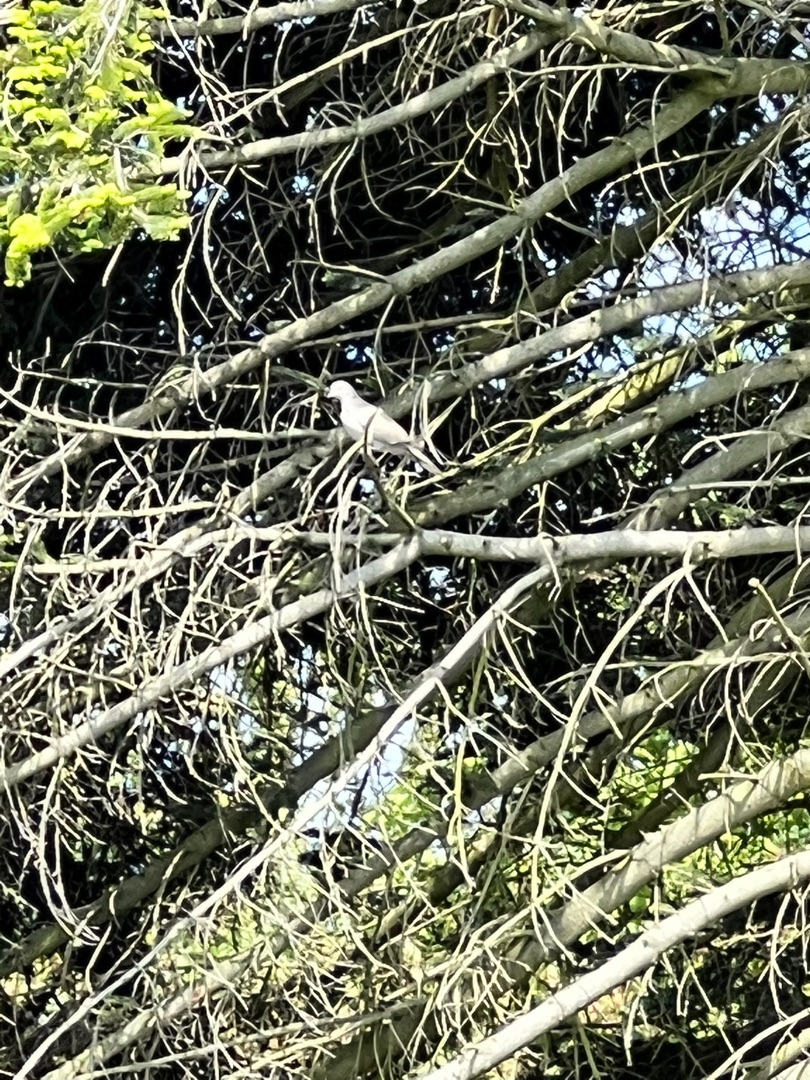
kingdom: Animalia
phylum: Chordata
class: Aves
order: Columbiformes
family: Columbidae
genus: Streptopelia
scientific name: Streptopelia decaocto
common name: Tyrkerdue
